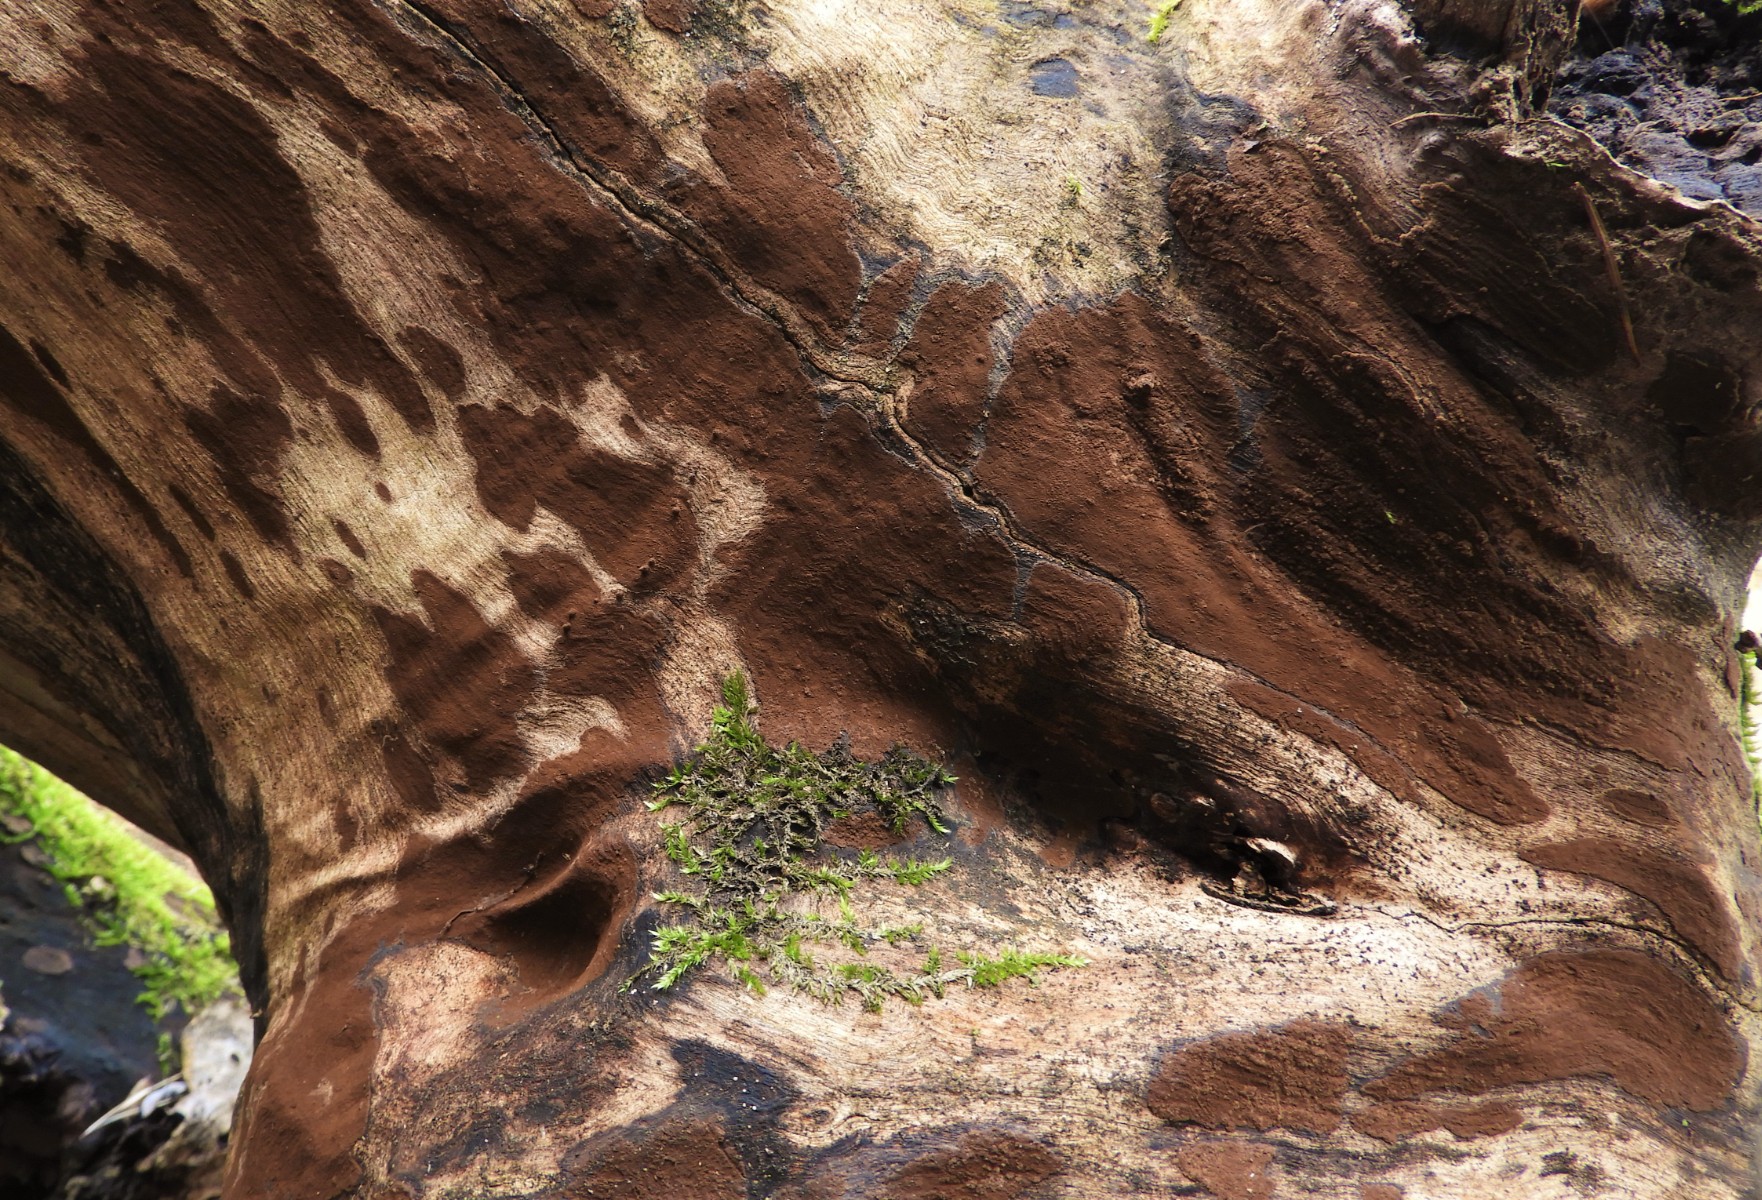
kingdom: Fungi
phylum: Ascomycota
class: Sordariomycetes
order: Xylariales
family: Hypoxylaceae
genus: Hypoxylon
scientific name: Hypoxylon petriniae
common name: nedsænket kulbær
